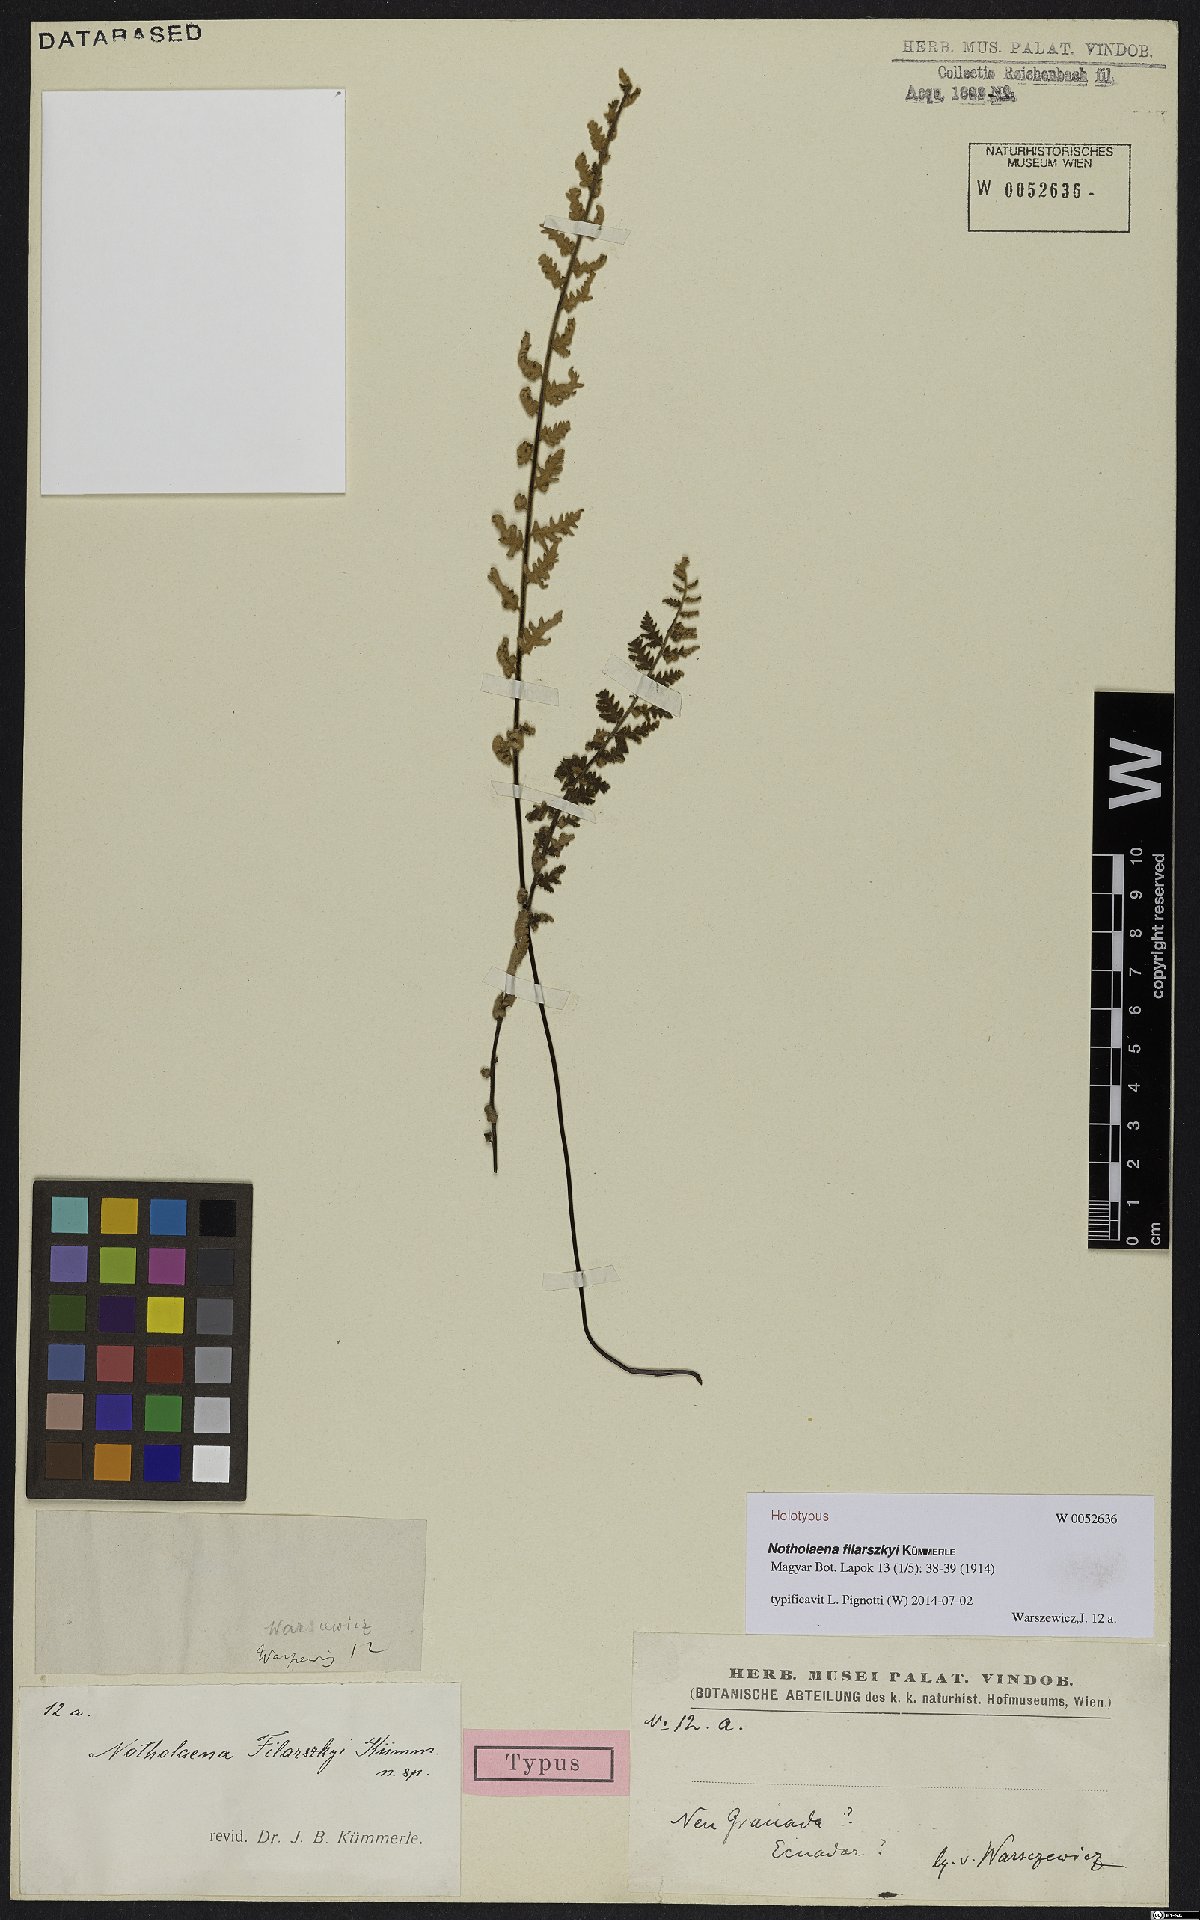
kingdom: Plantae
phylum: Tracheophyta
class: Polypodiopsida
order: Polypodiales
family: Pteridaceae
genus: Hemionitis
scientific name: Hemionitis Notholaena filarszkyi
